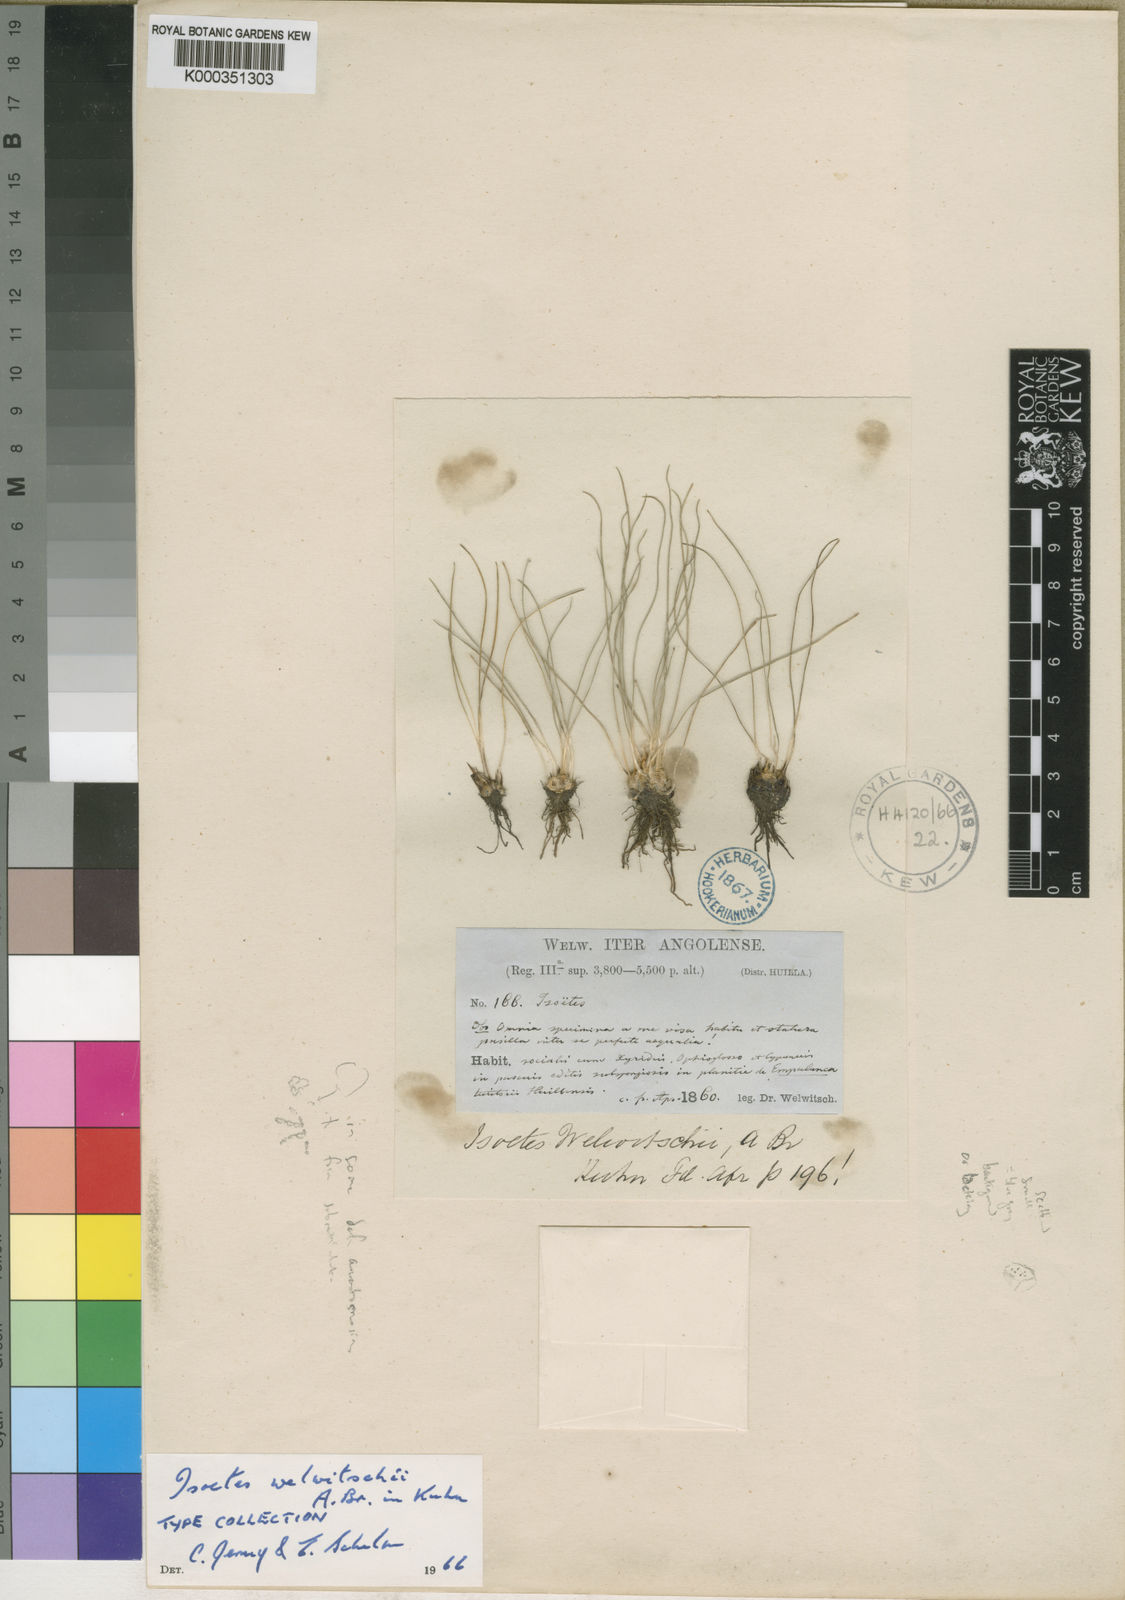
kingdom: Plantae
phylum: Tracheophyta
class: Lycopodiopsida
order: Isoetales
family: Isoetaceae
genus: Isoetes
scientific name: Isoetes welwitschii
